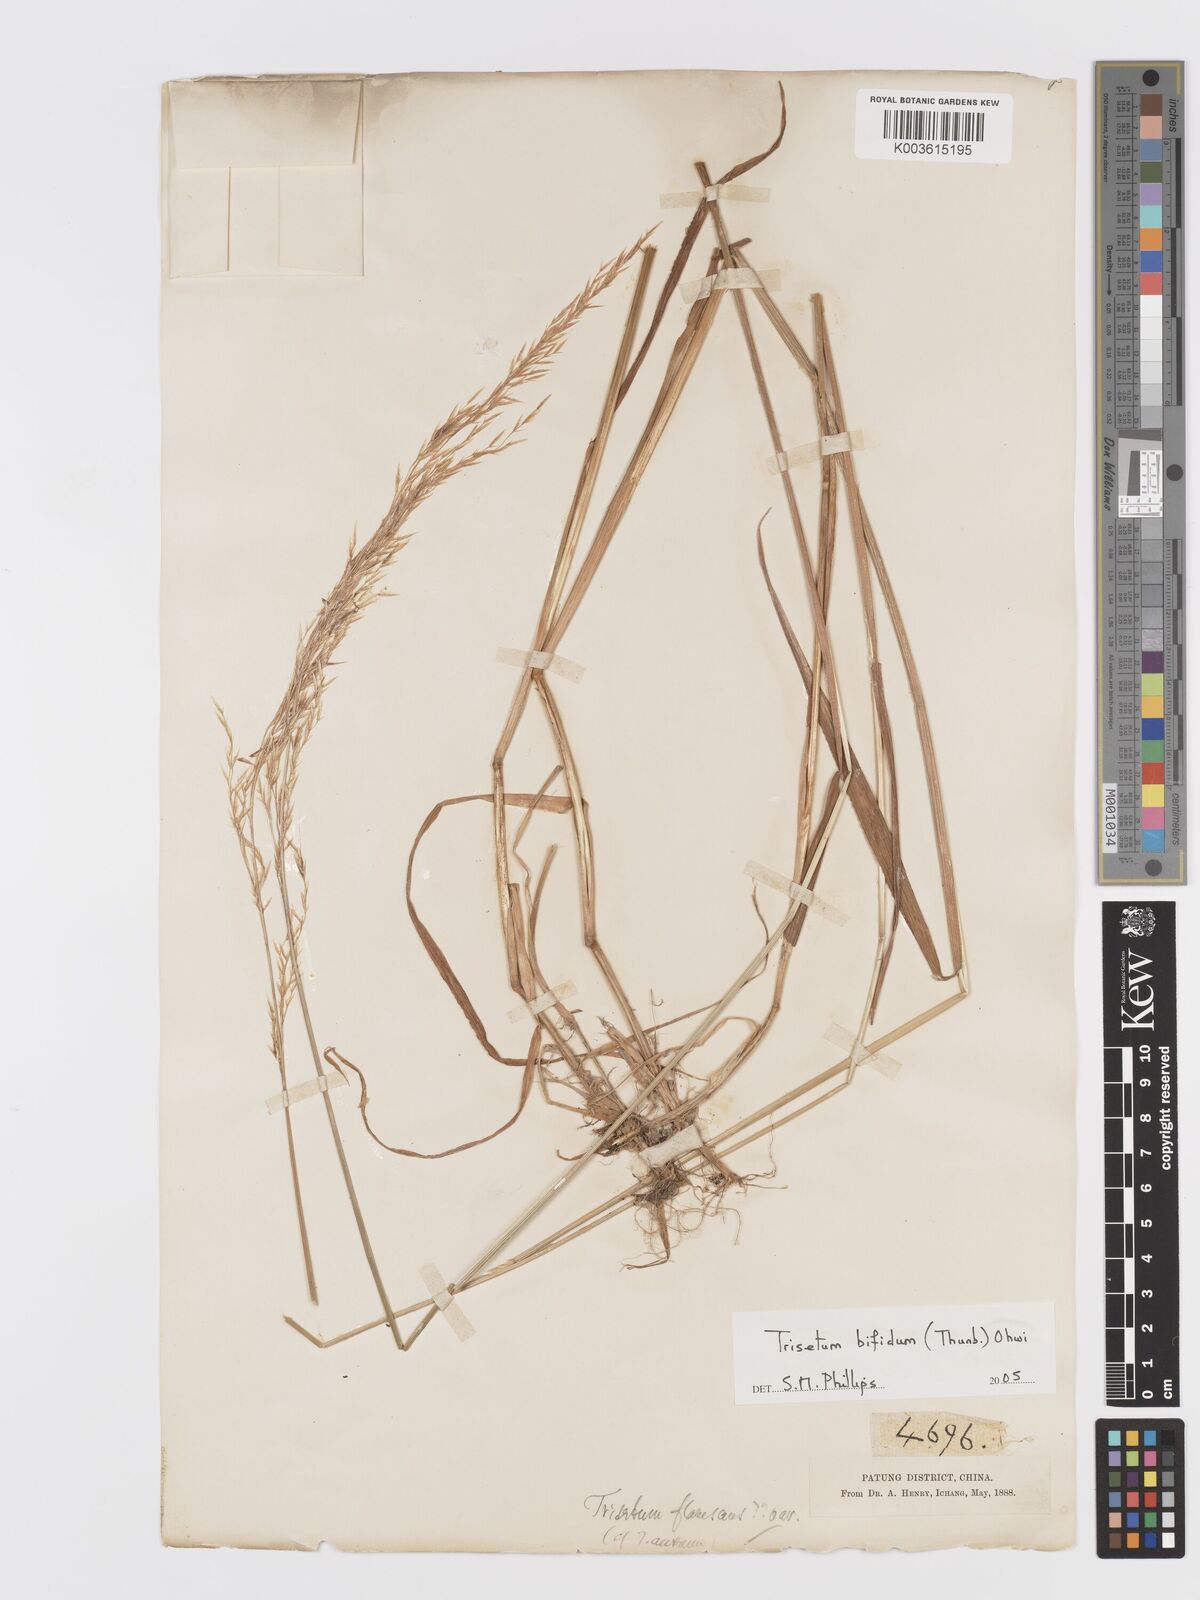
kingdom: Plantae
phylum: Tracheophyta
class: Liliopsida
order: Poales
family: Poaceae
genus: Sibirotrisetum
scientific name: Sibirotrisetum bifidum
